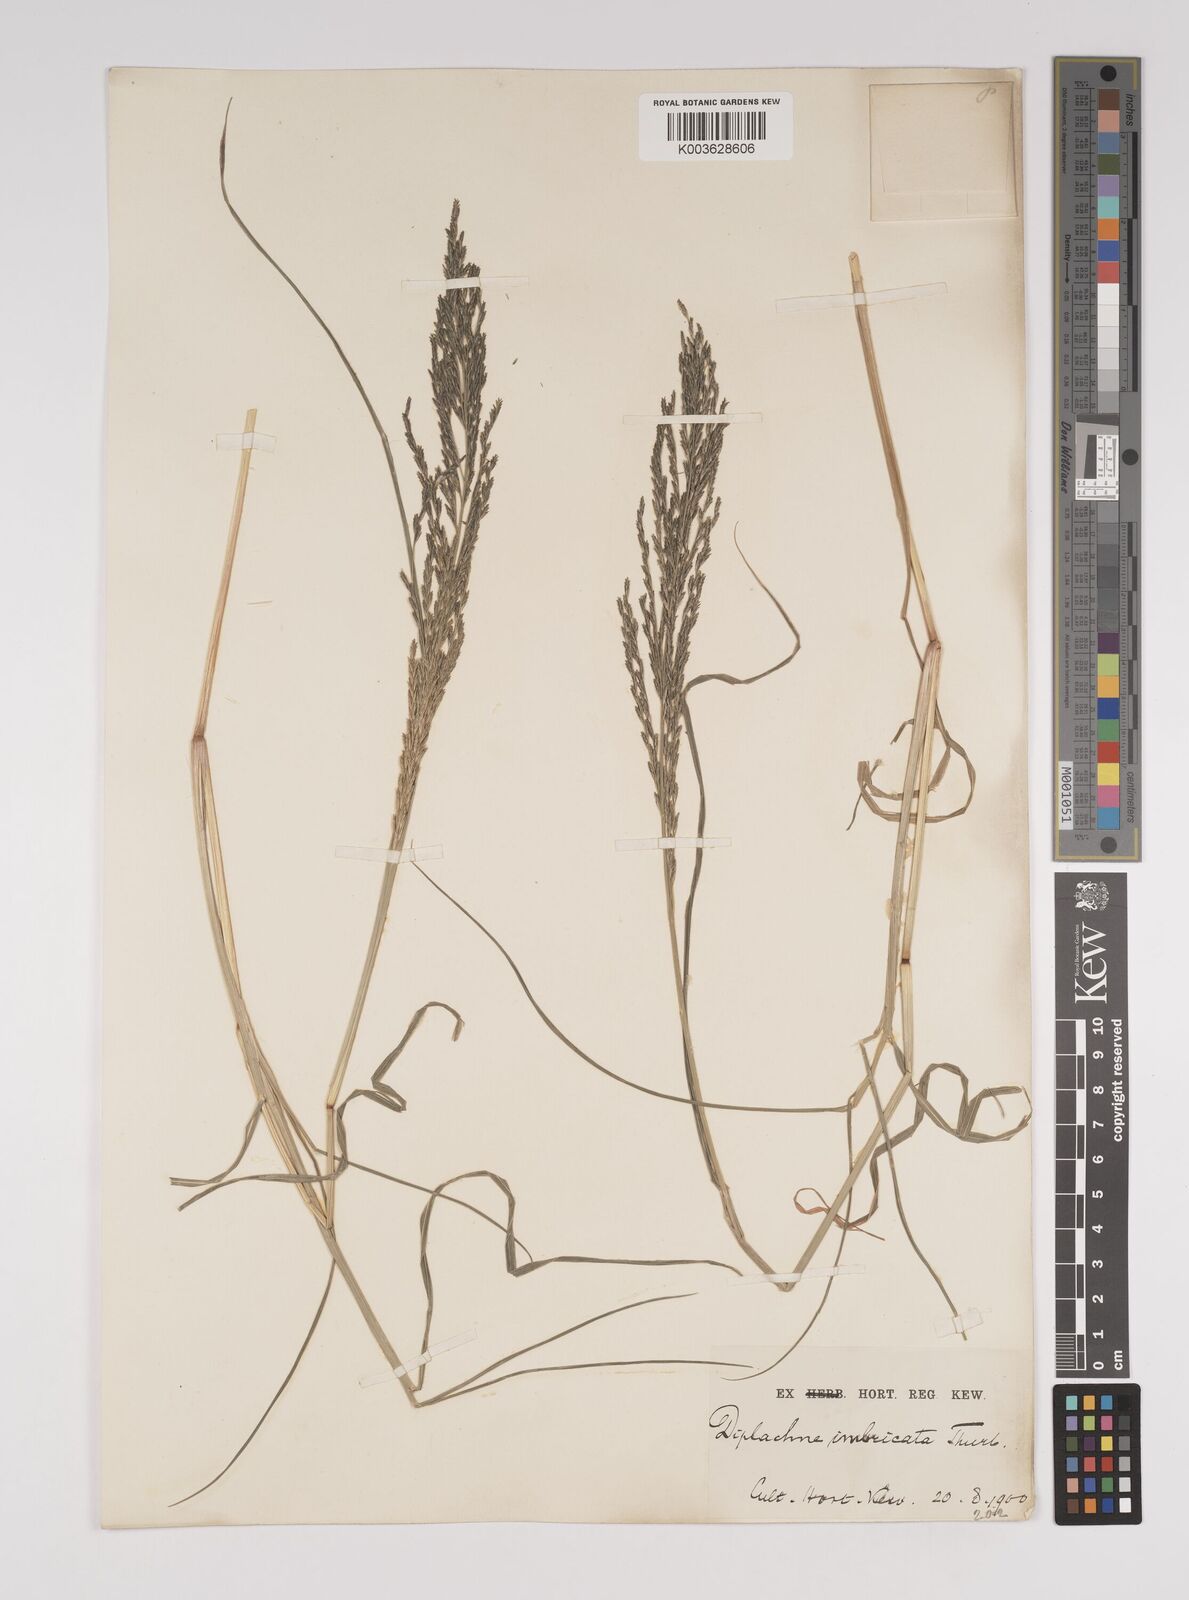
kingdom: Plantae
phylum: Tracheophyta
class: Liliopsida
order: Poales
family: Poaceae
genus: Diplachne
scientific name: Diplachne fusca
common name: Brown beetle grass
